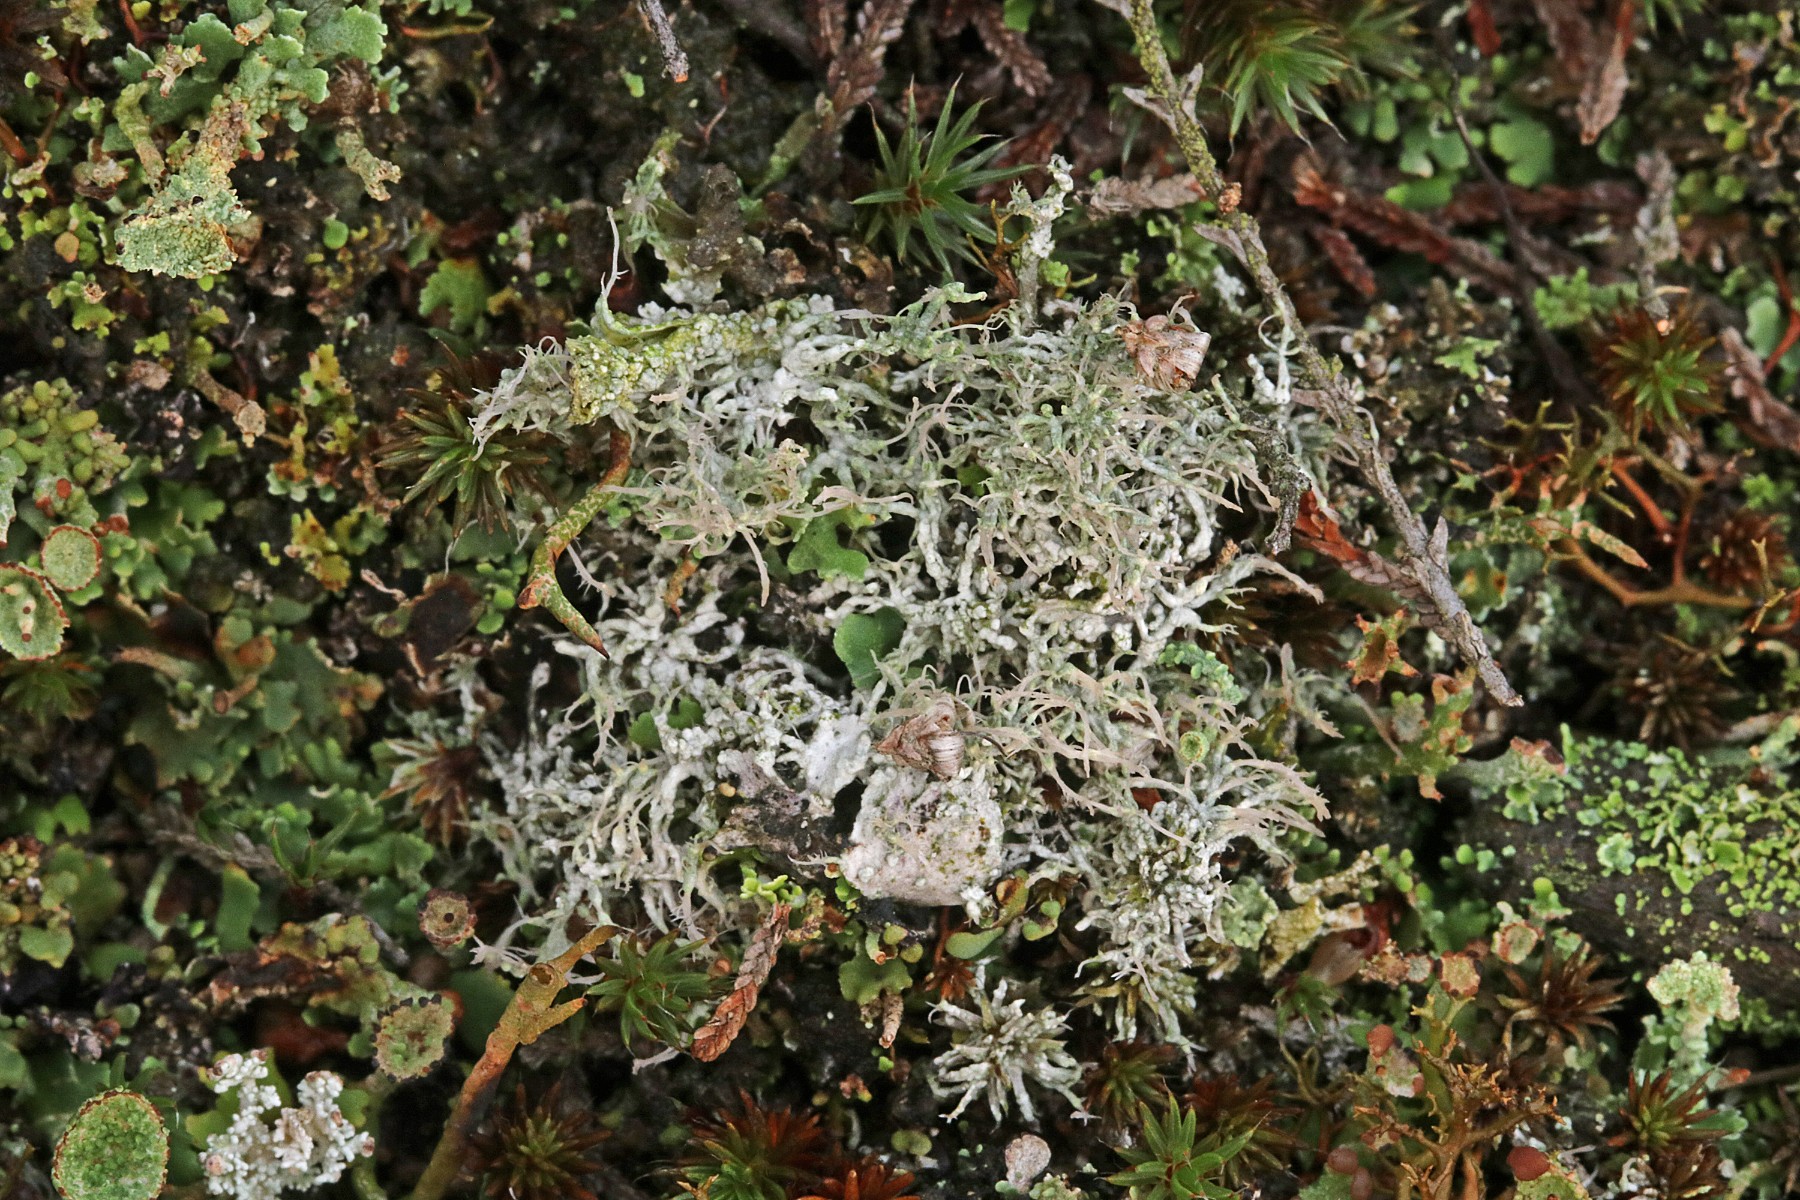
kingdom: Fungi
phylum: Ascomycota
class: Lecanoromycetes
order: Pertusariales
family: Ochrolechiaceae
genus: Ochrolechia
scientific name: Ochrolechia frigida
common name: fjeld-blegskivelav
